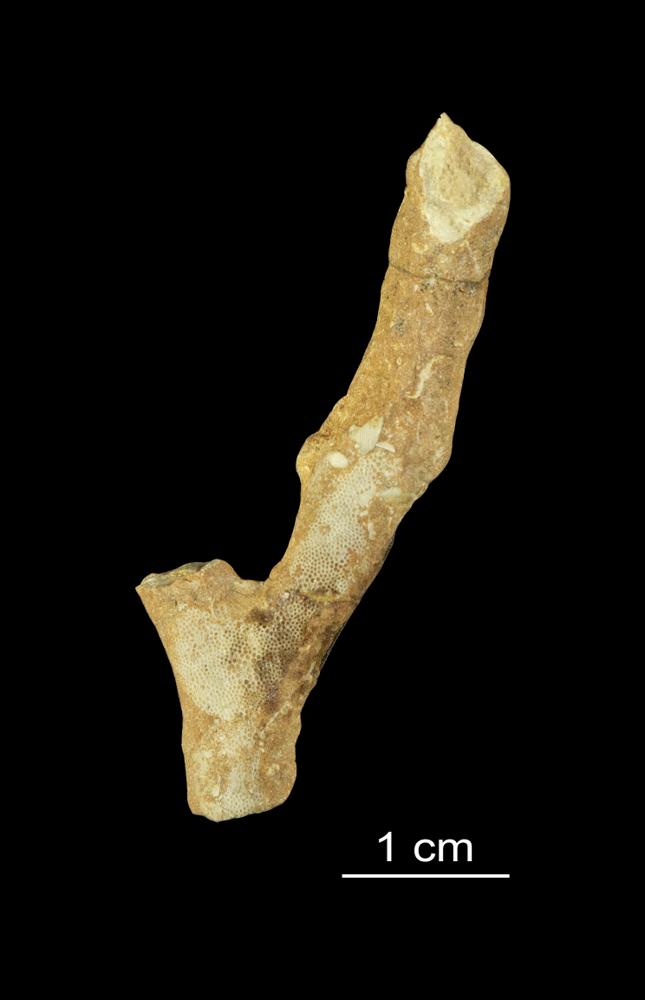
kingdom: Animalia
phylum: Bryozoa
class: Stenolaemata
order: Trepostomatida
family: Monticuliporidae
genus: Homotrypa
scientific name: Homotrypa
